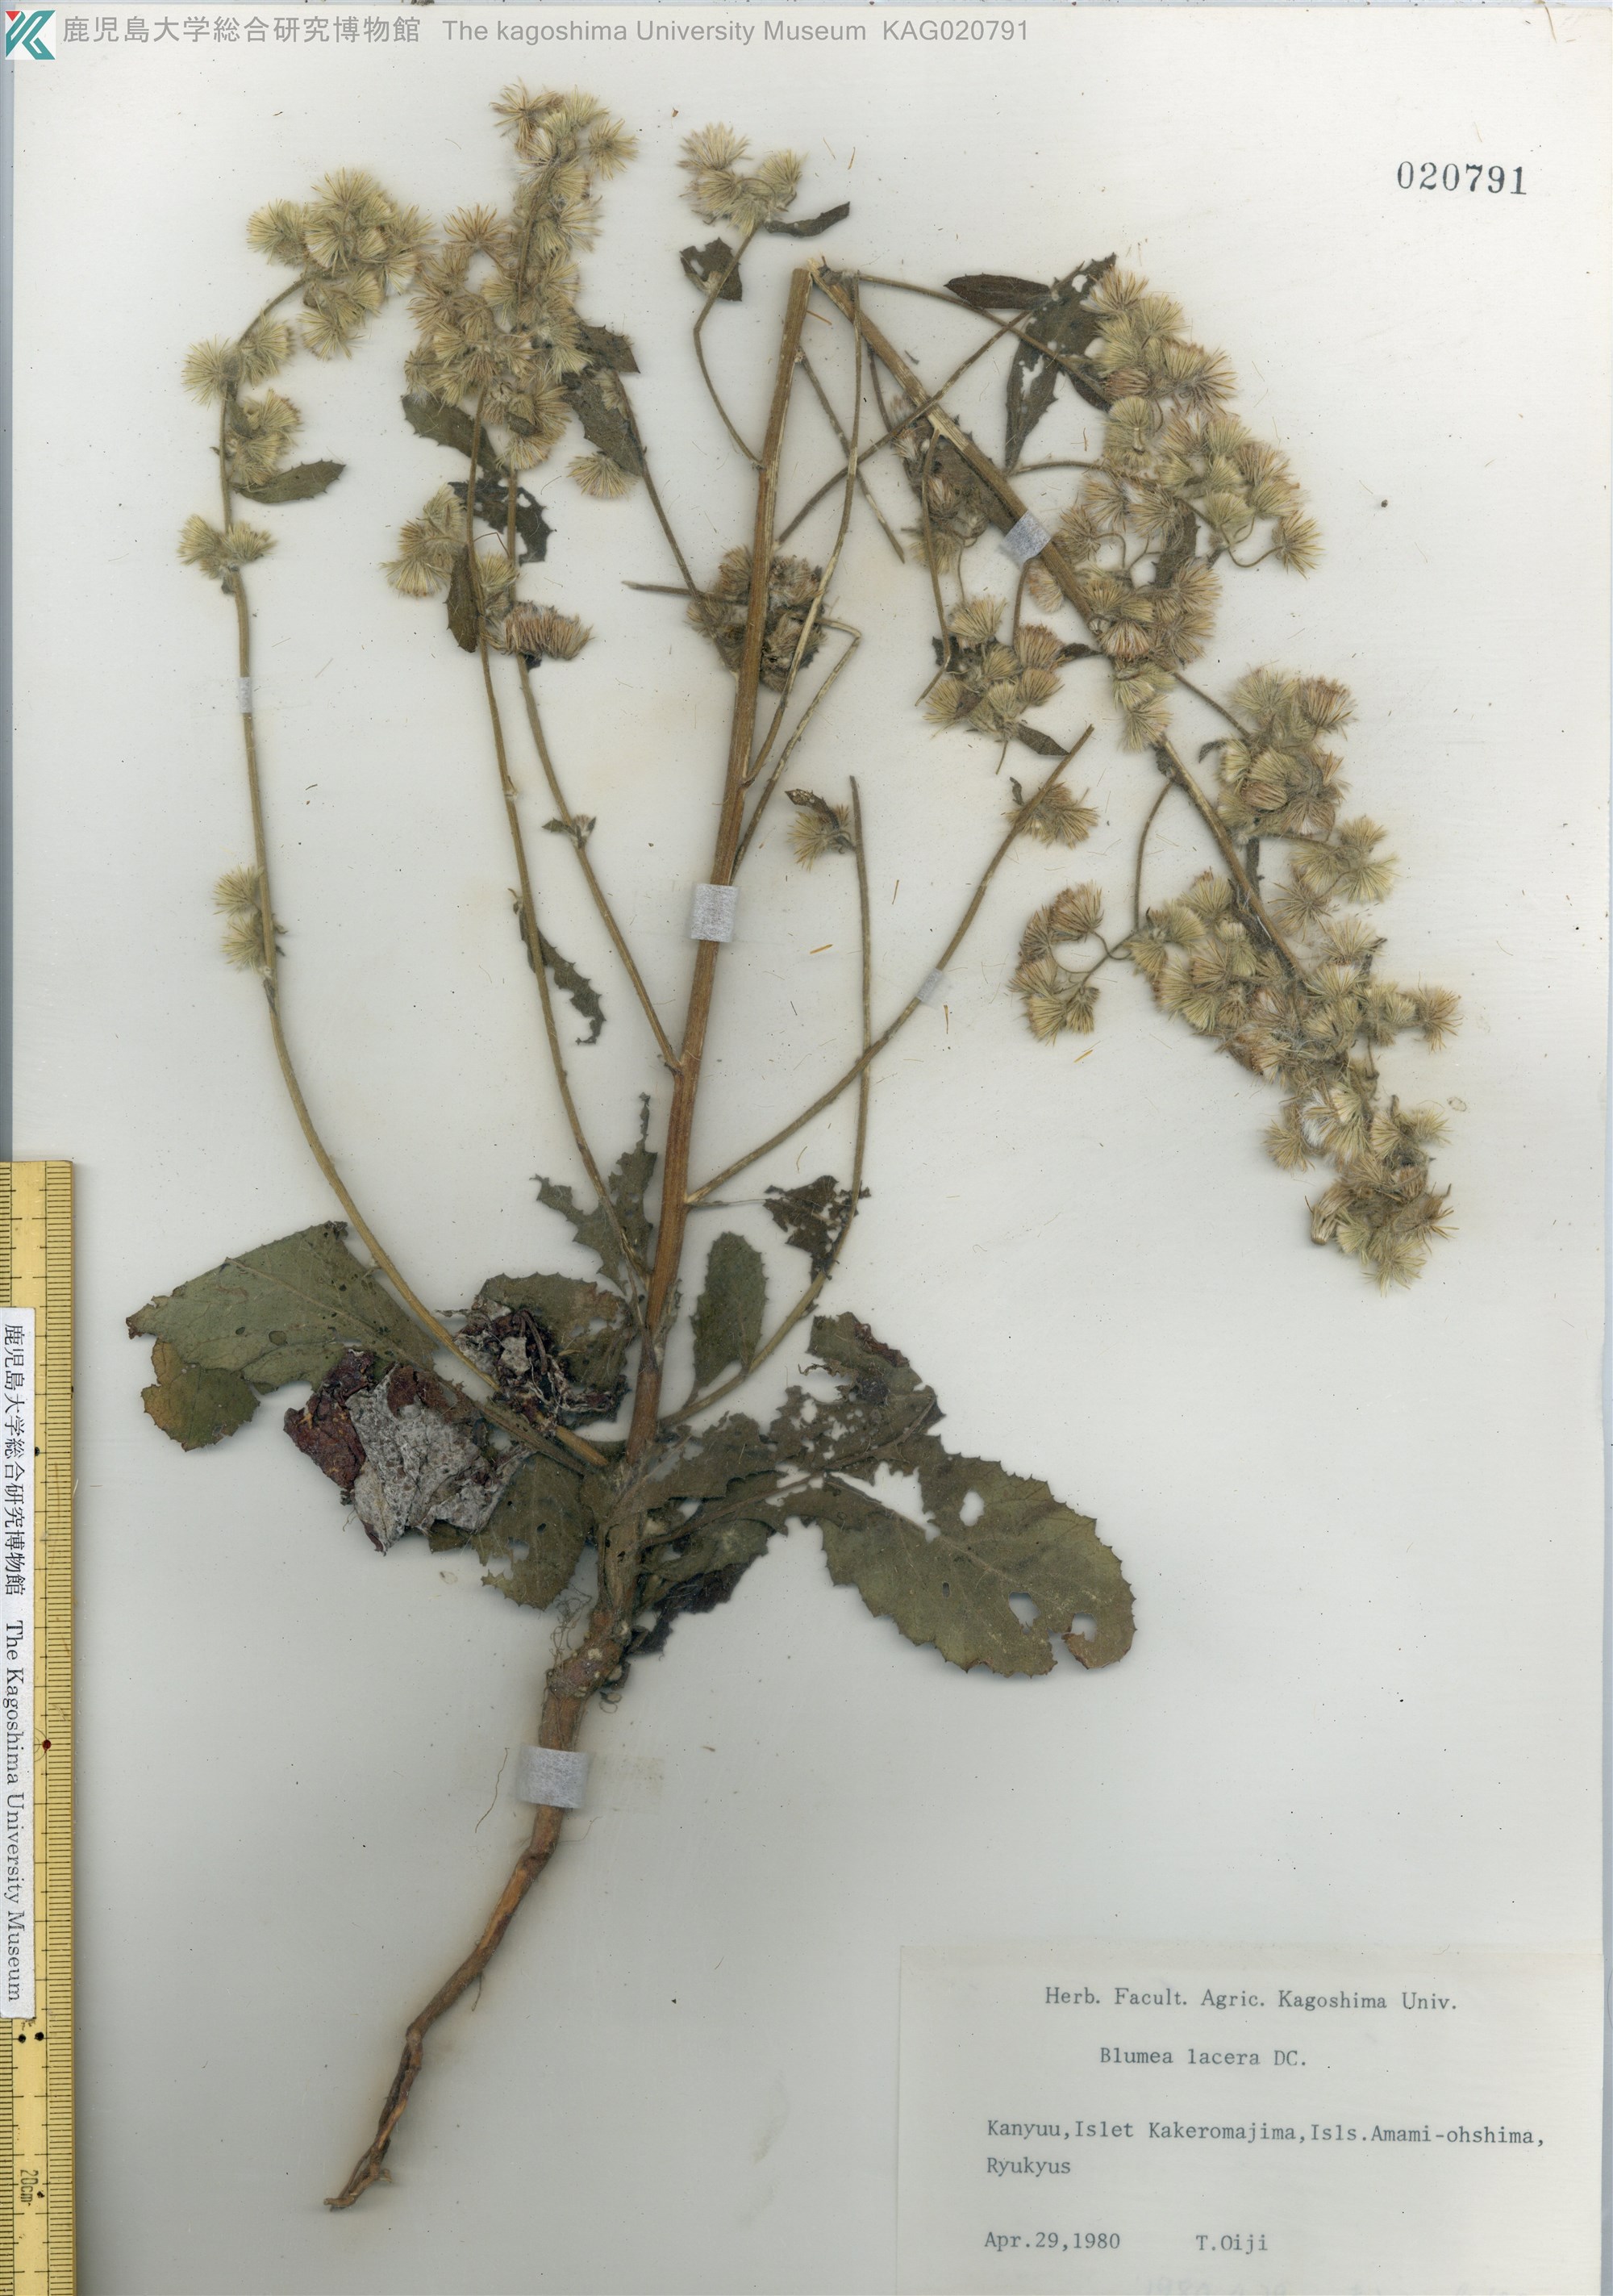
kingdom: Plantae
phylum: Tracheophyta
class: Magnoliopsida
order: Asterales
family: Asteraceae
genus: Blumea
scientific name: Blumea lacera
